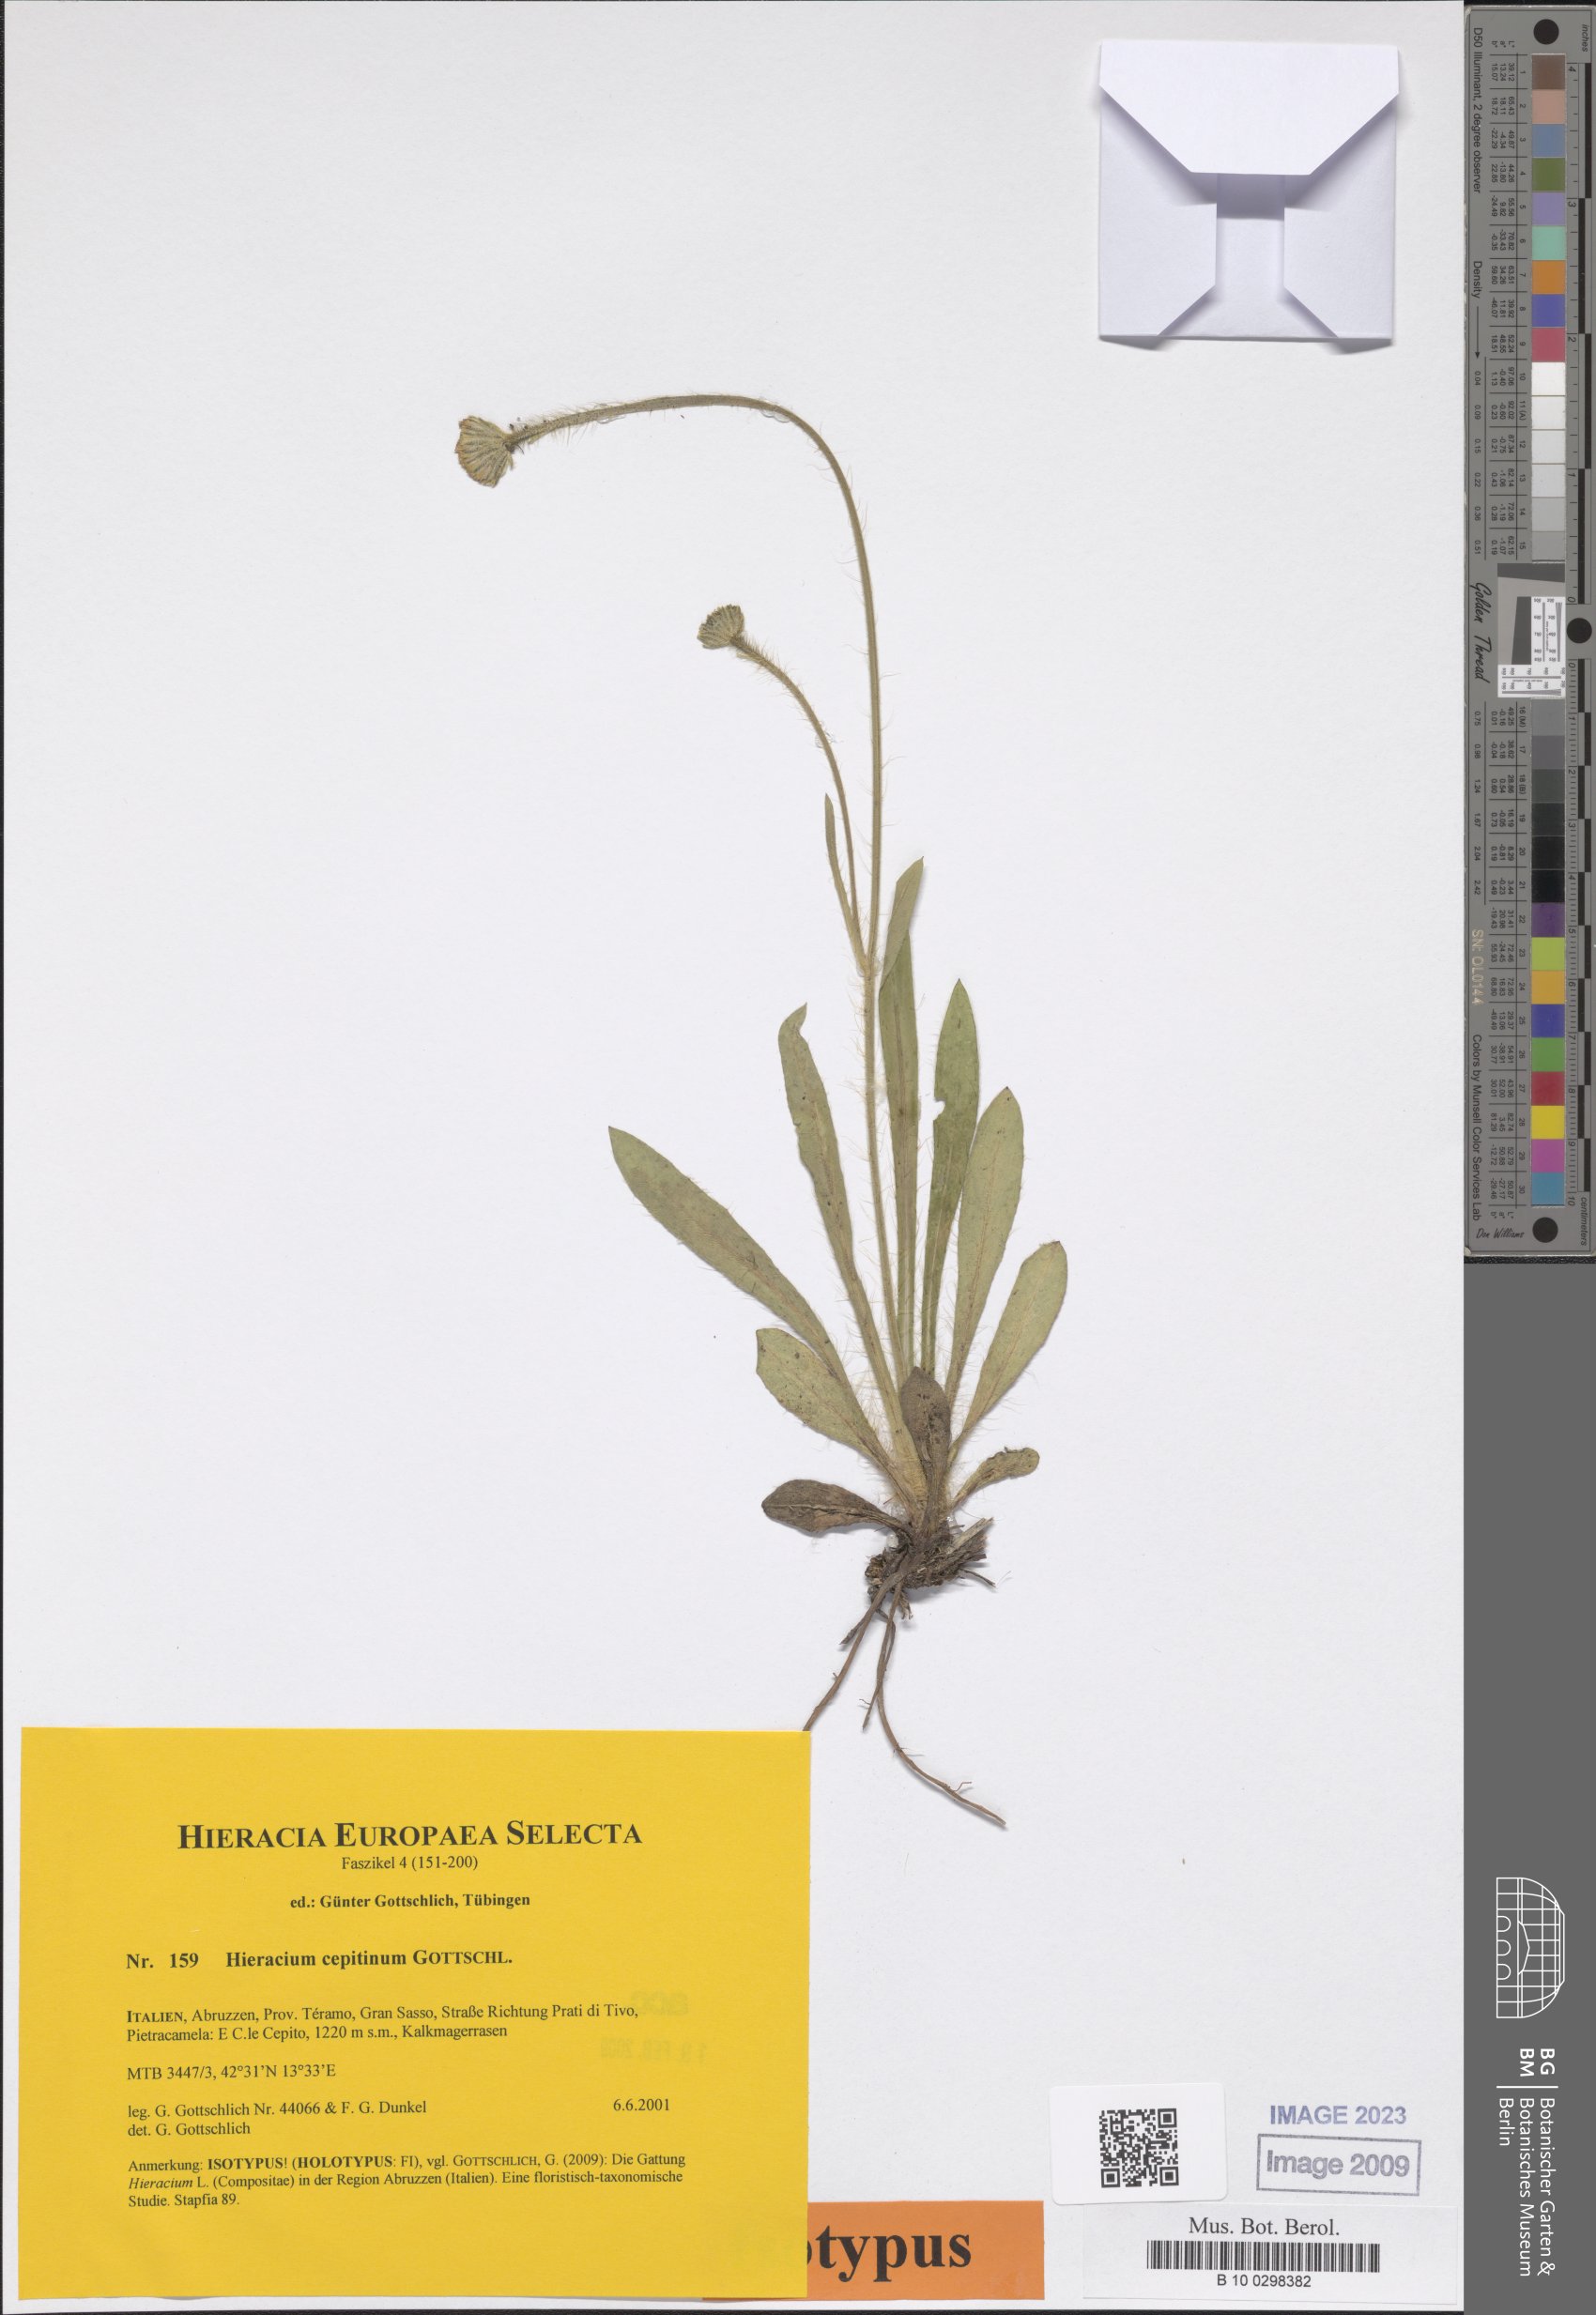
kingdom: Plantae
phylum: Tracheophyta
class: Magnoliopsida
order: Asterales
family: Asteraceae
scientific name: Asteraceae
